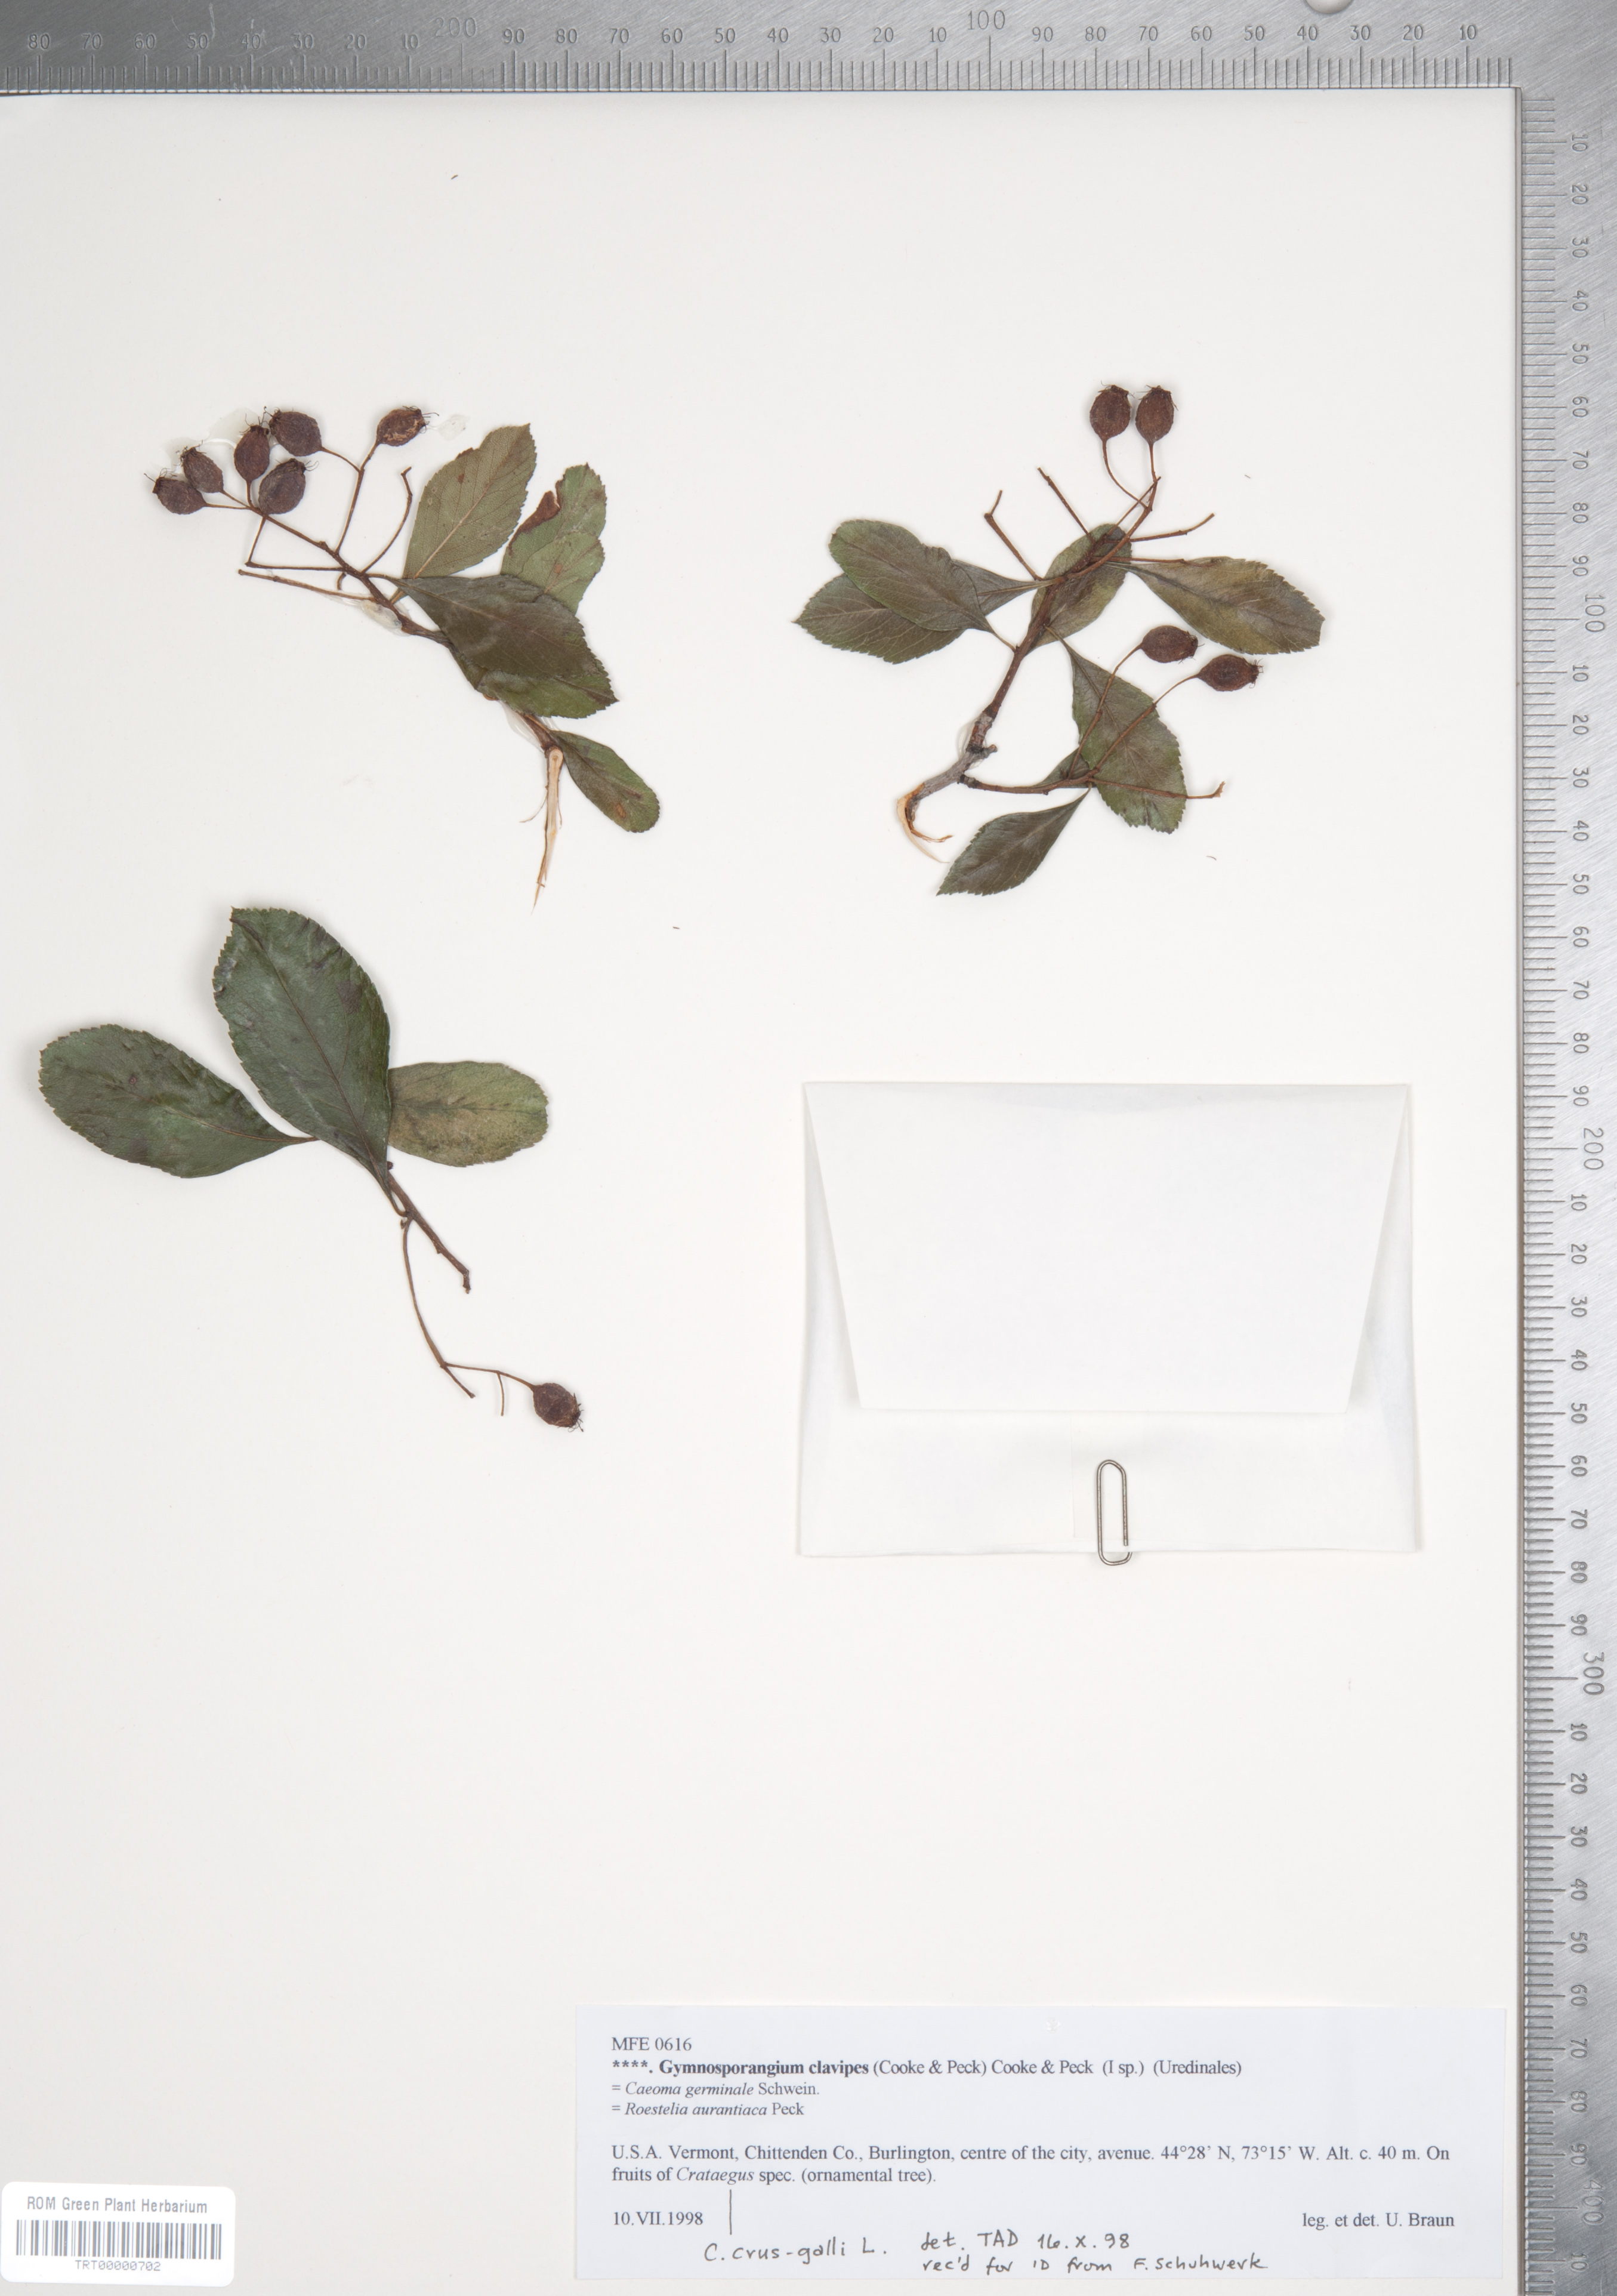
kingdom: Plantae
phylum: Tracheophyta
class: Magnoliopsida
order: Rosales
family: Rosaceae
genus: Crataegus
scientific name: Crataegus crus-galli
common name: Cockspurthorn
